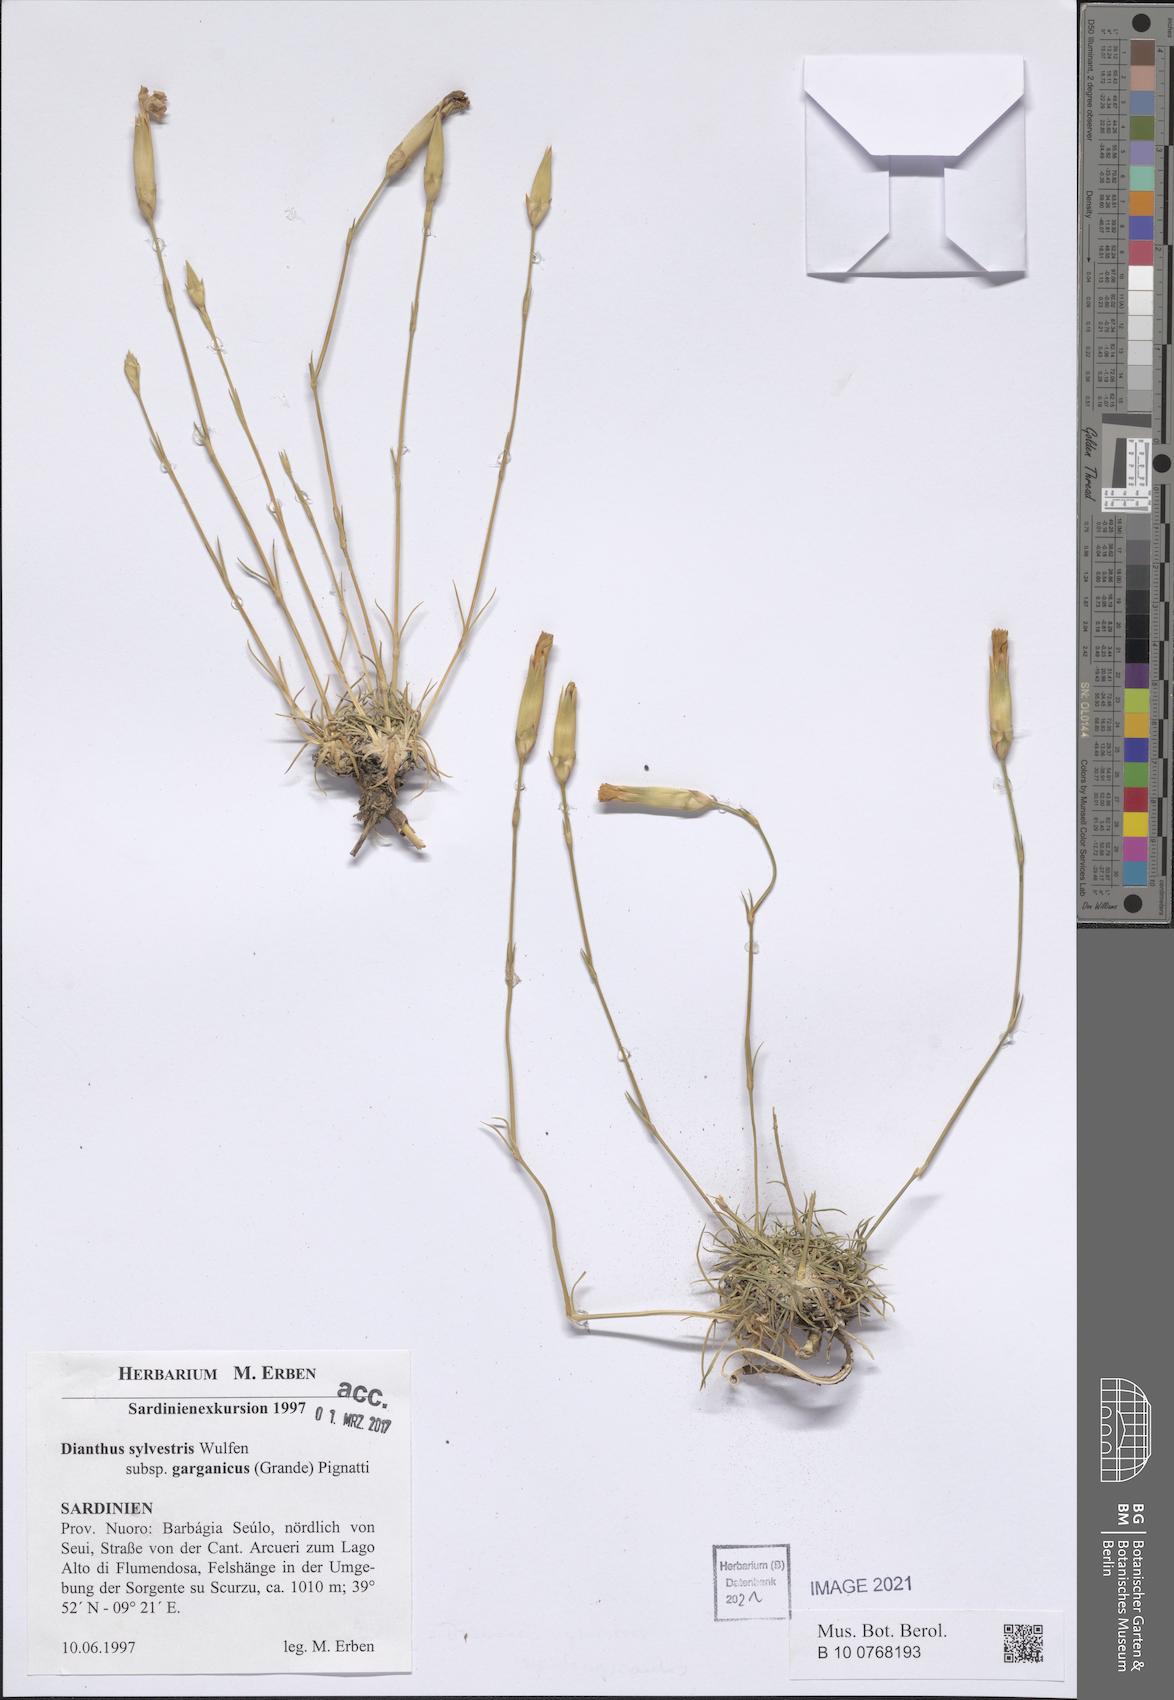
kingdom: Plantae
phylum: Tracheophyta
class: Magnoliopsida
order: Caryophyllales
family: Caryophyllaceae
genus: Dianthus
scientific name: Dianthus tarentinus
